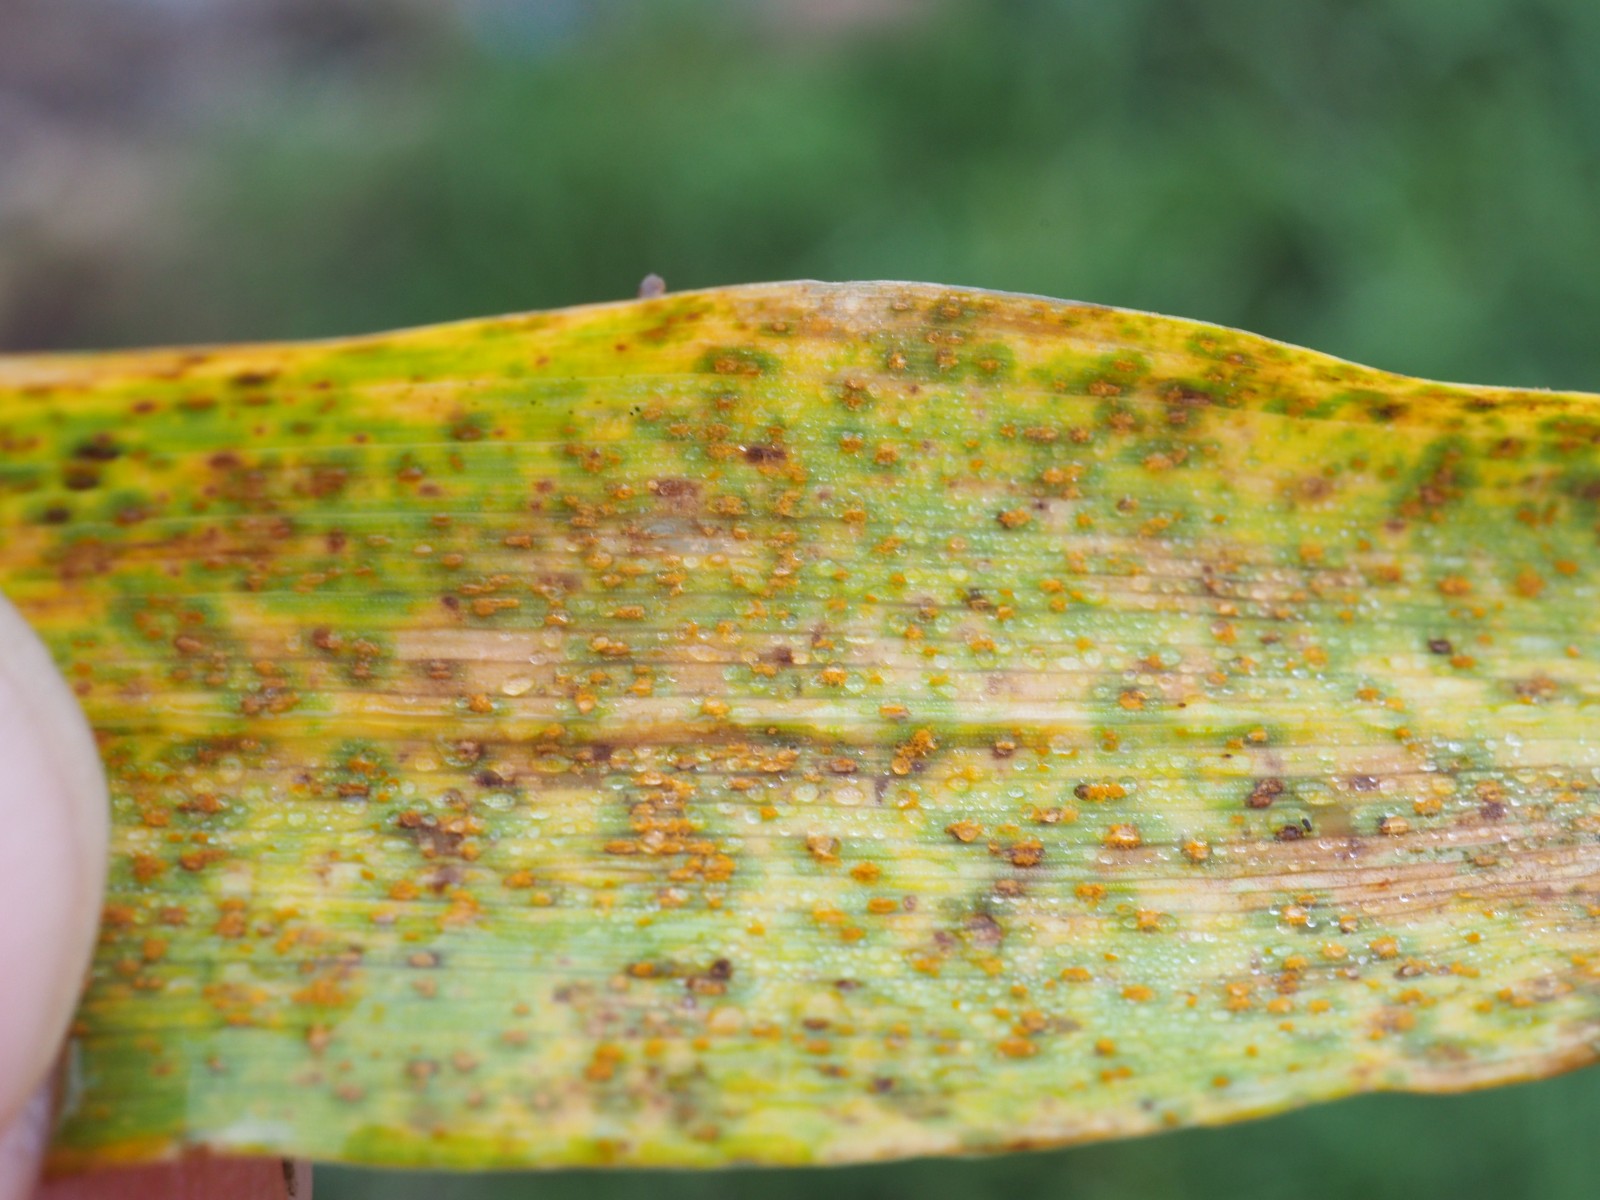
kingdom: Fungi
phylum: Basidiomycota
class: Pucciniomycetes
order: Pucciniales
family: Pucciniaceae
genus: Puccinia
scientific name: Puccinia hordei
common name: Barley leaf rust
